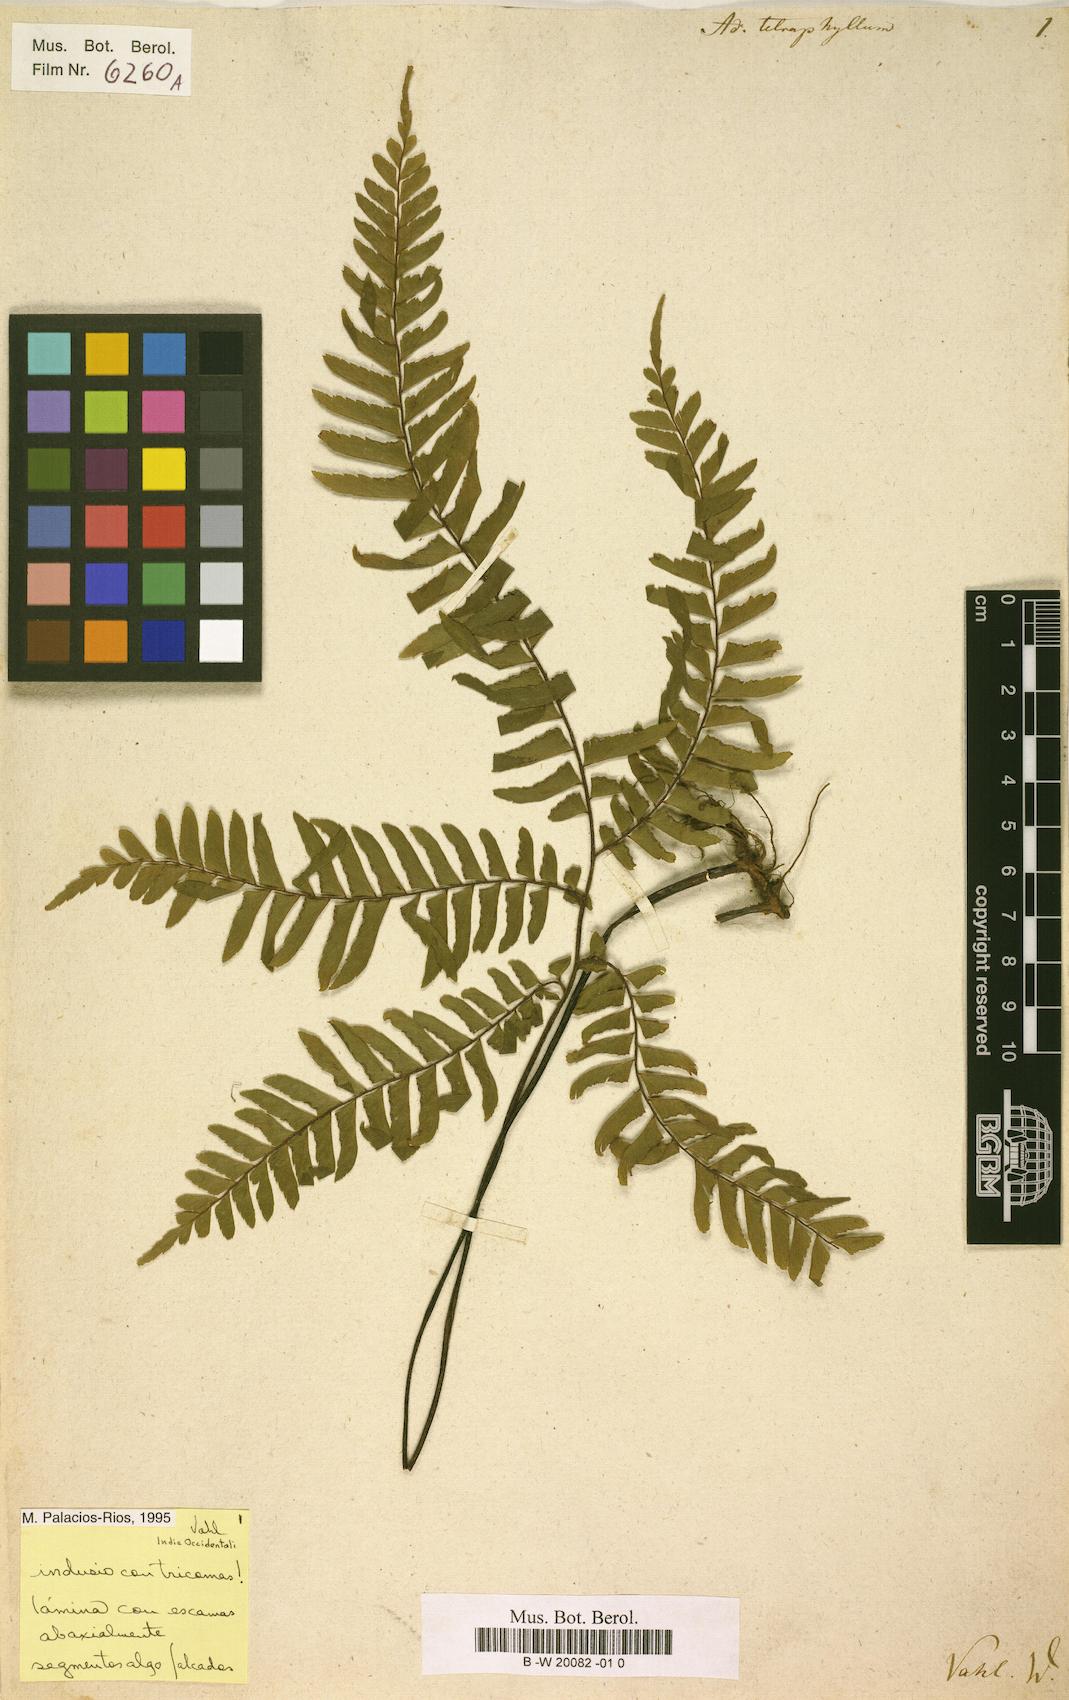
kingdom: Plantae
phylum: Tracheophyta
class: Polypodiopsida
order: Polypodiales
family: Pteridaceae
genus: Adiantum
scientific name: Adiantum tetraphyllum
